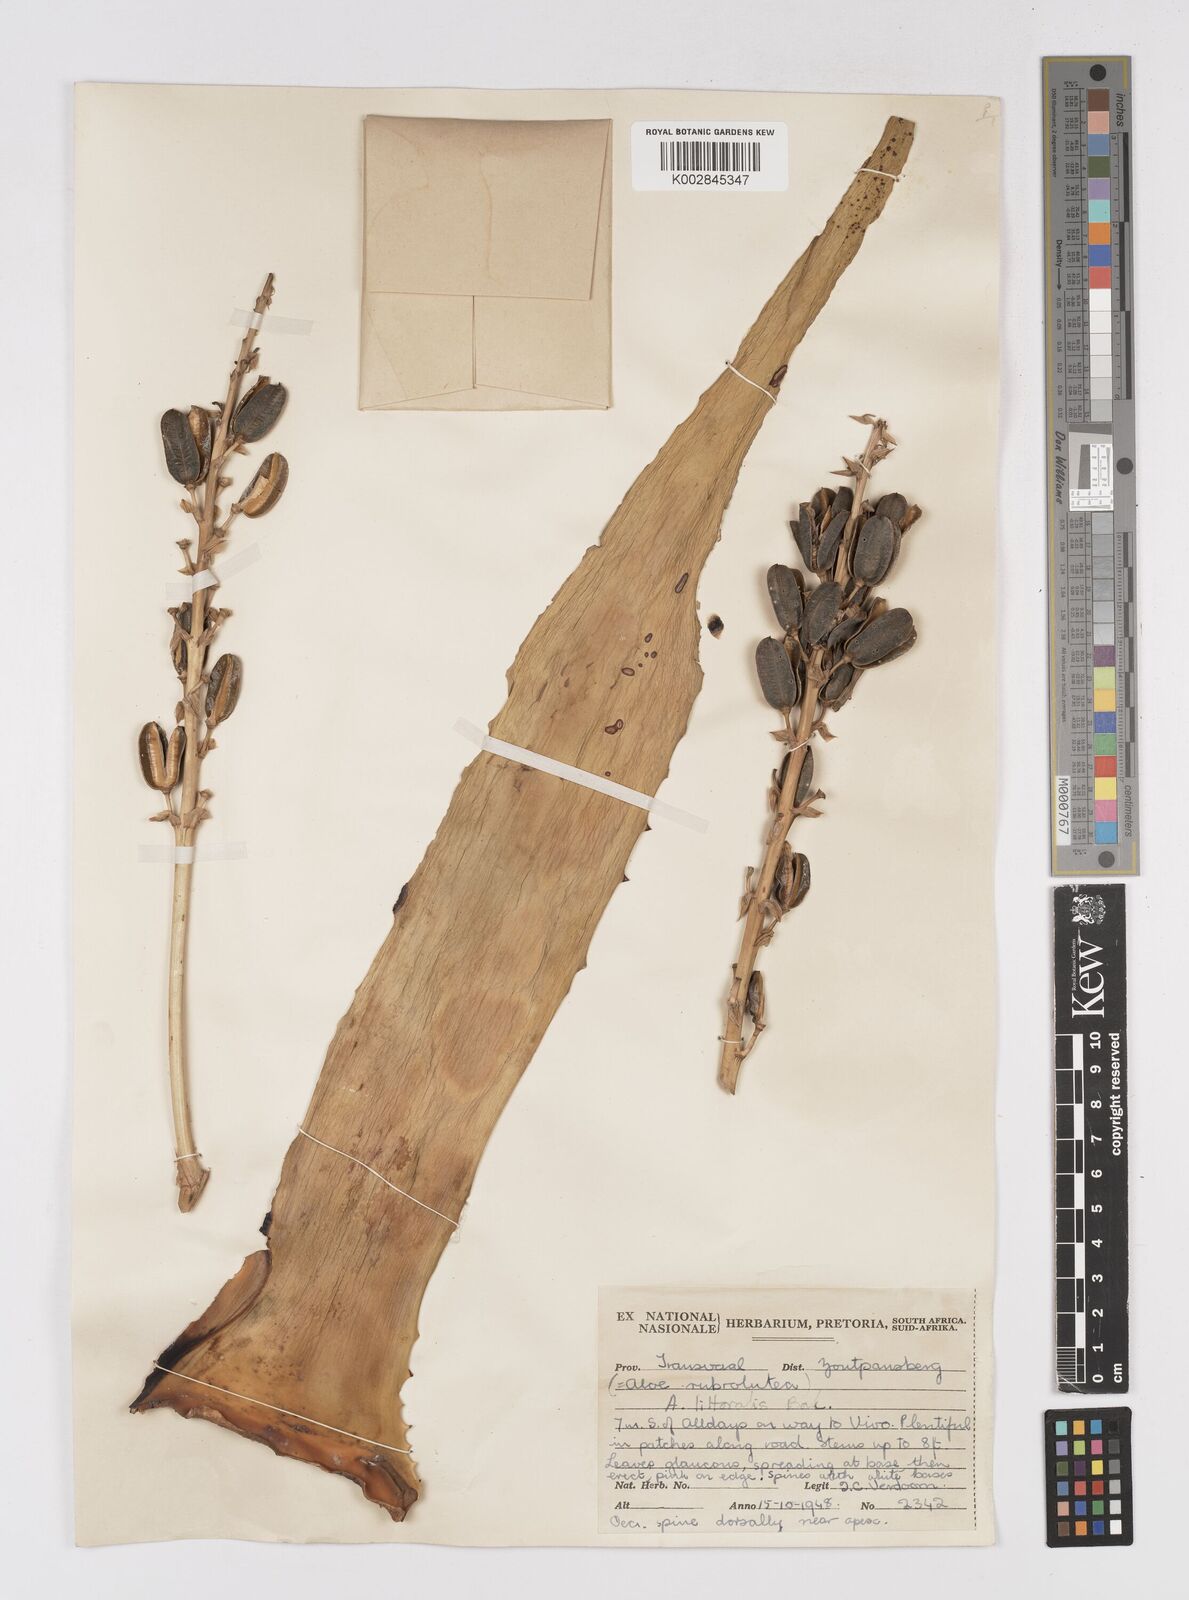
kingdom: Plantae
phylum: Tracheophyta
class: Liliopsida
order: Asparagales
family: Asphodelaceae
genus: Aloe
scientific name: Aloe littoralis
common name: Luanda tree aloe
